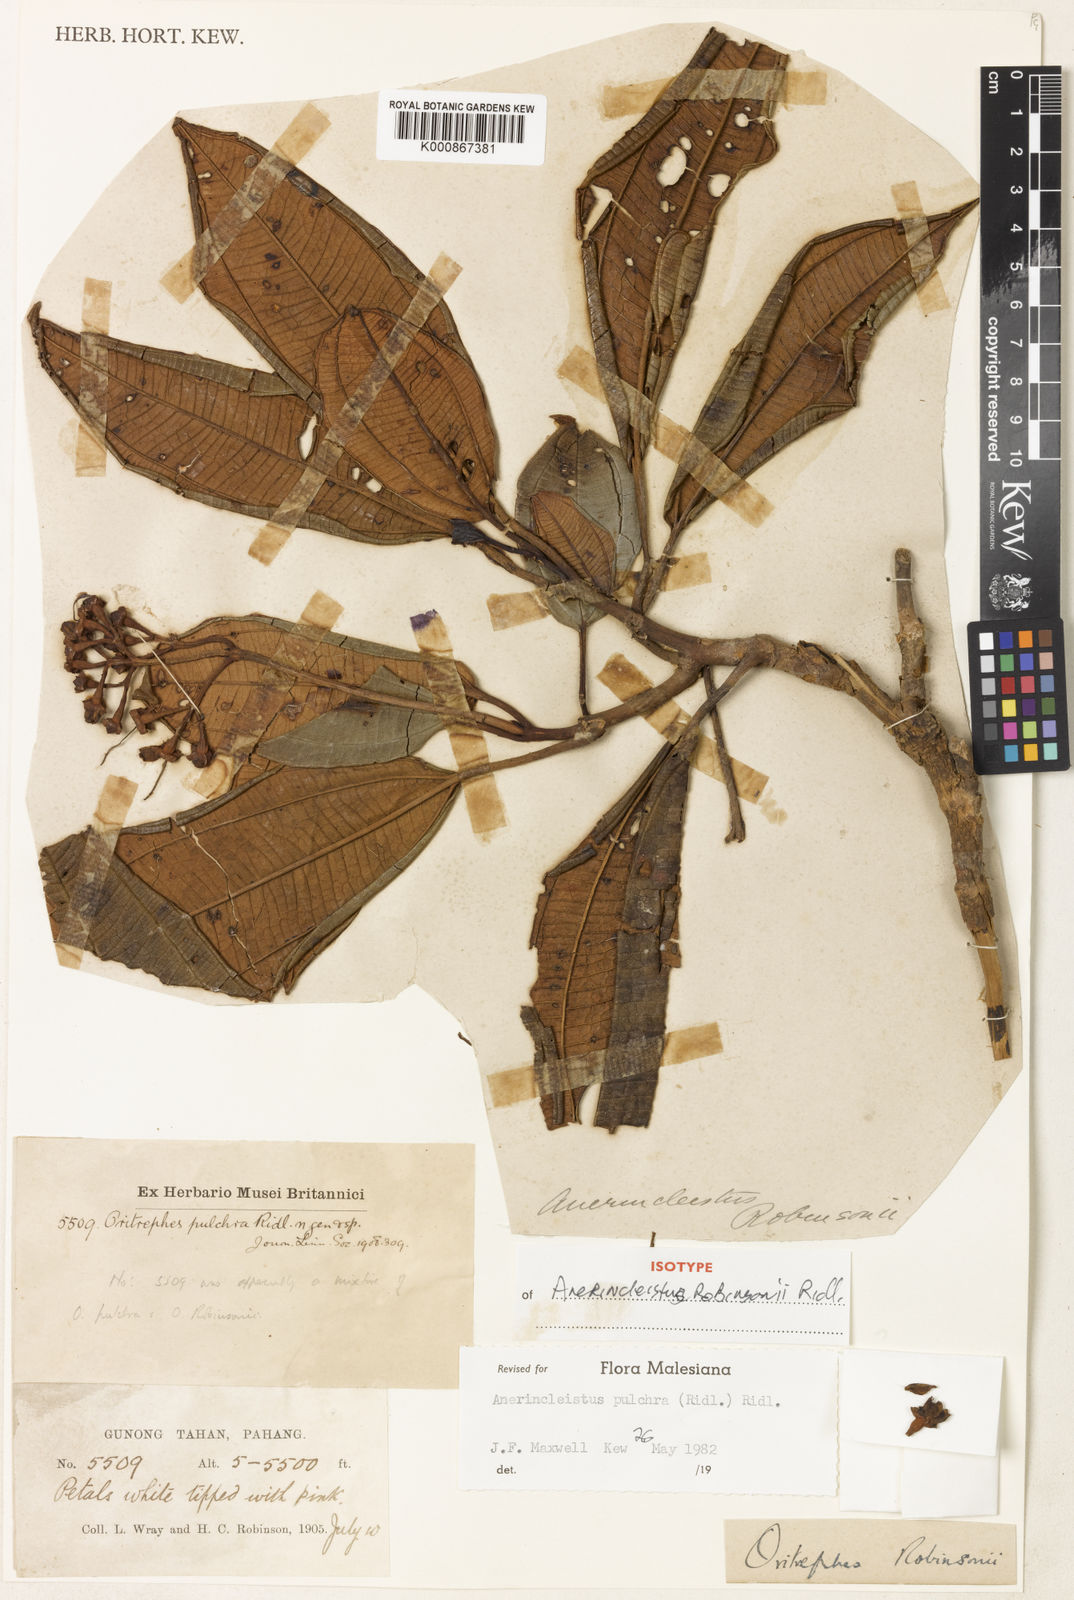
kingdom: Plantae
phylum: Tracheophyta
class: Magnoliopsida
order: Myrtales
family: Melastomataceae
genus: Anerincleistus
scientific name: Anerincleistus pulchra
